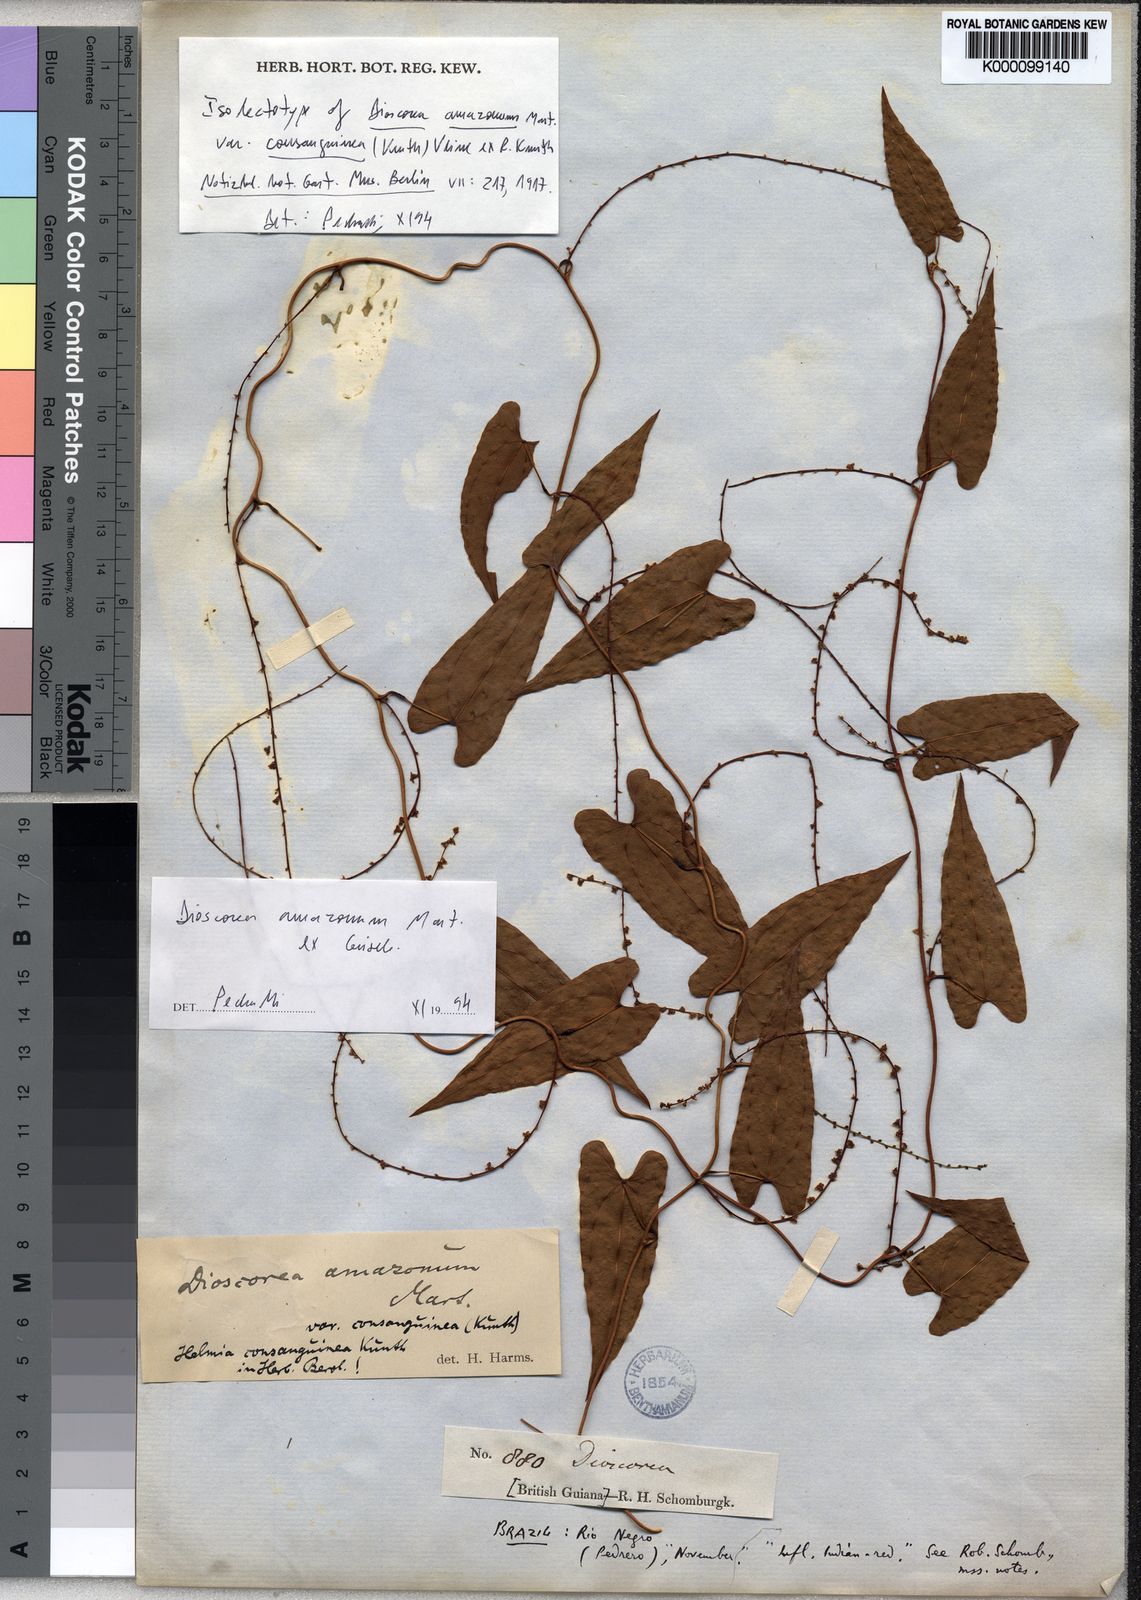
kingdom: Plantae
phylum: Tracheophyta
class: Liliopsida
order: Dioscoreales
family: Dioscoreaceae
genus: Dioscorea
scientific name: Dioscorea amazonum
